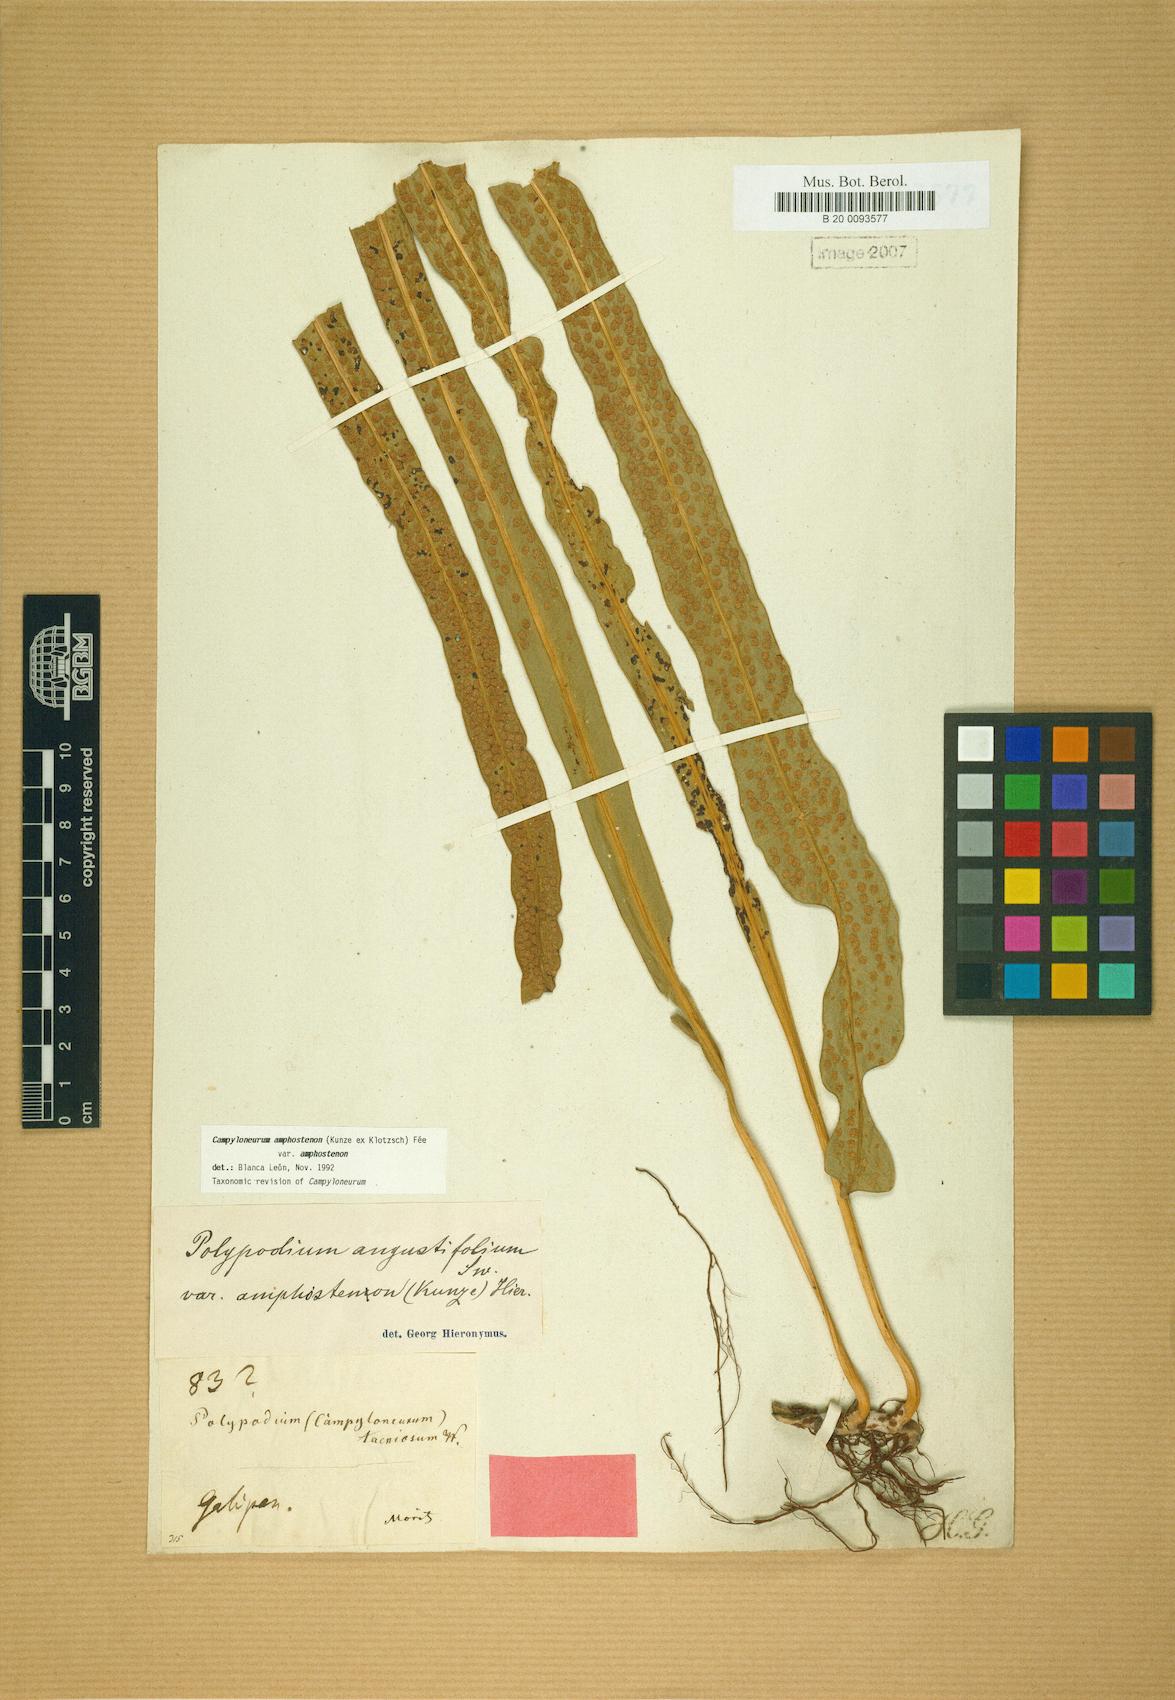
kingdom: Plantae
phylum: Tracheophyta
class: Polypodiopsida
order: Polypodiales
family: Polypodiaceae
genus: Campyloneurum
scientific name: Campyloneurum amphostenon
